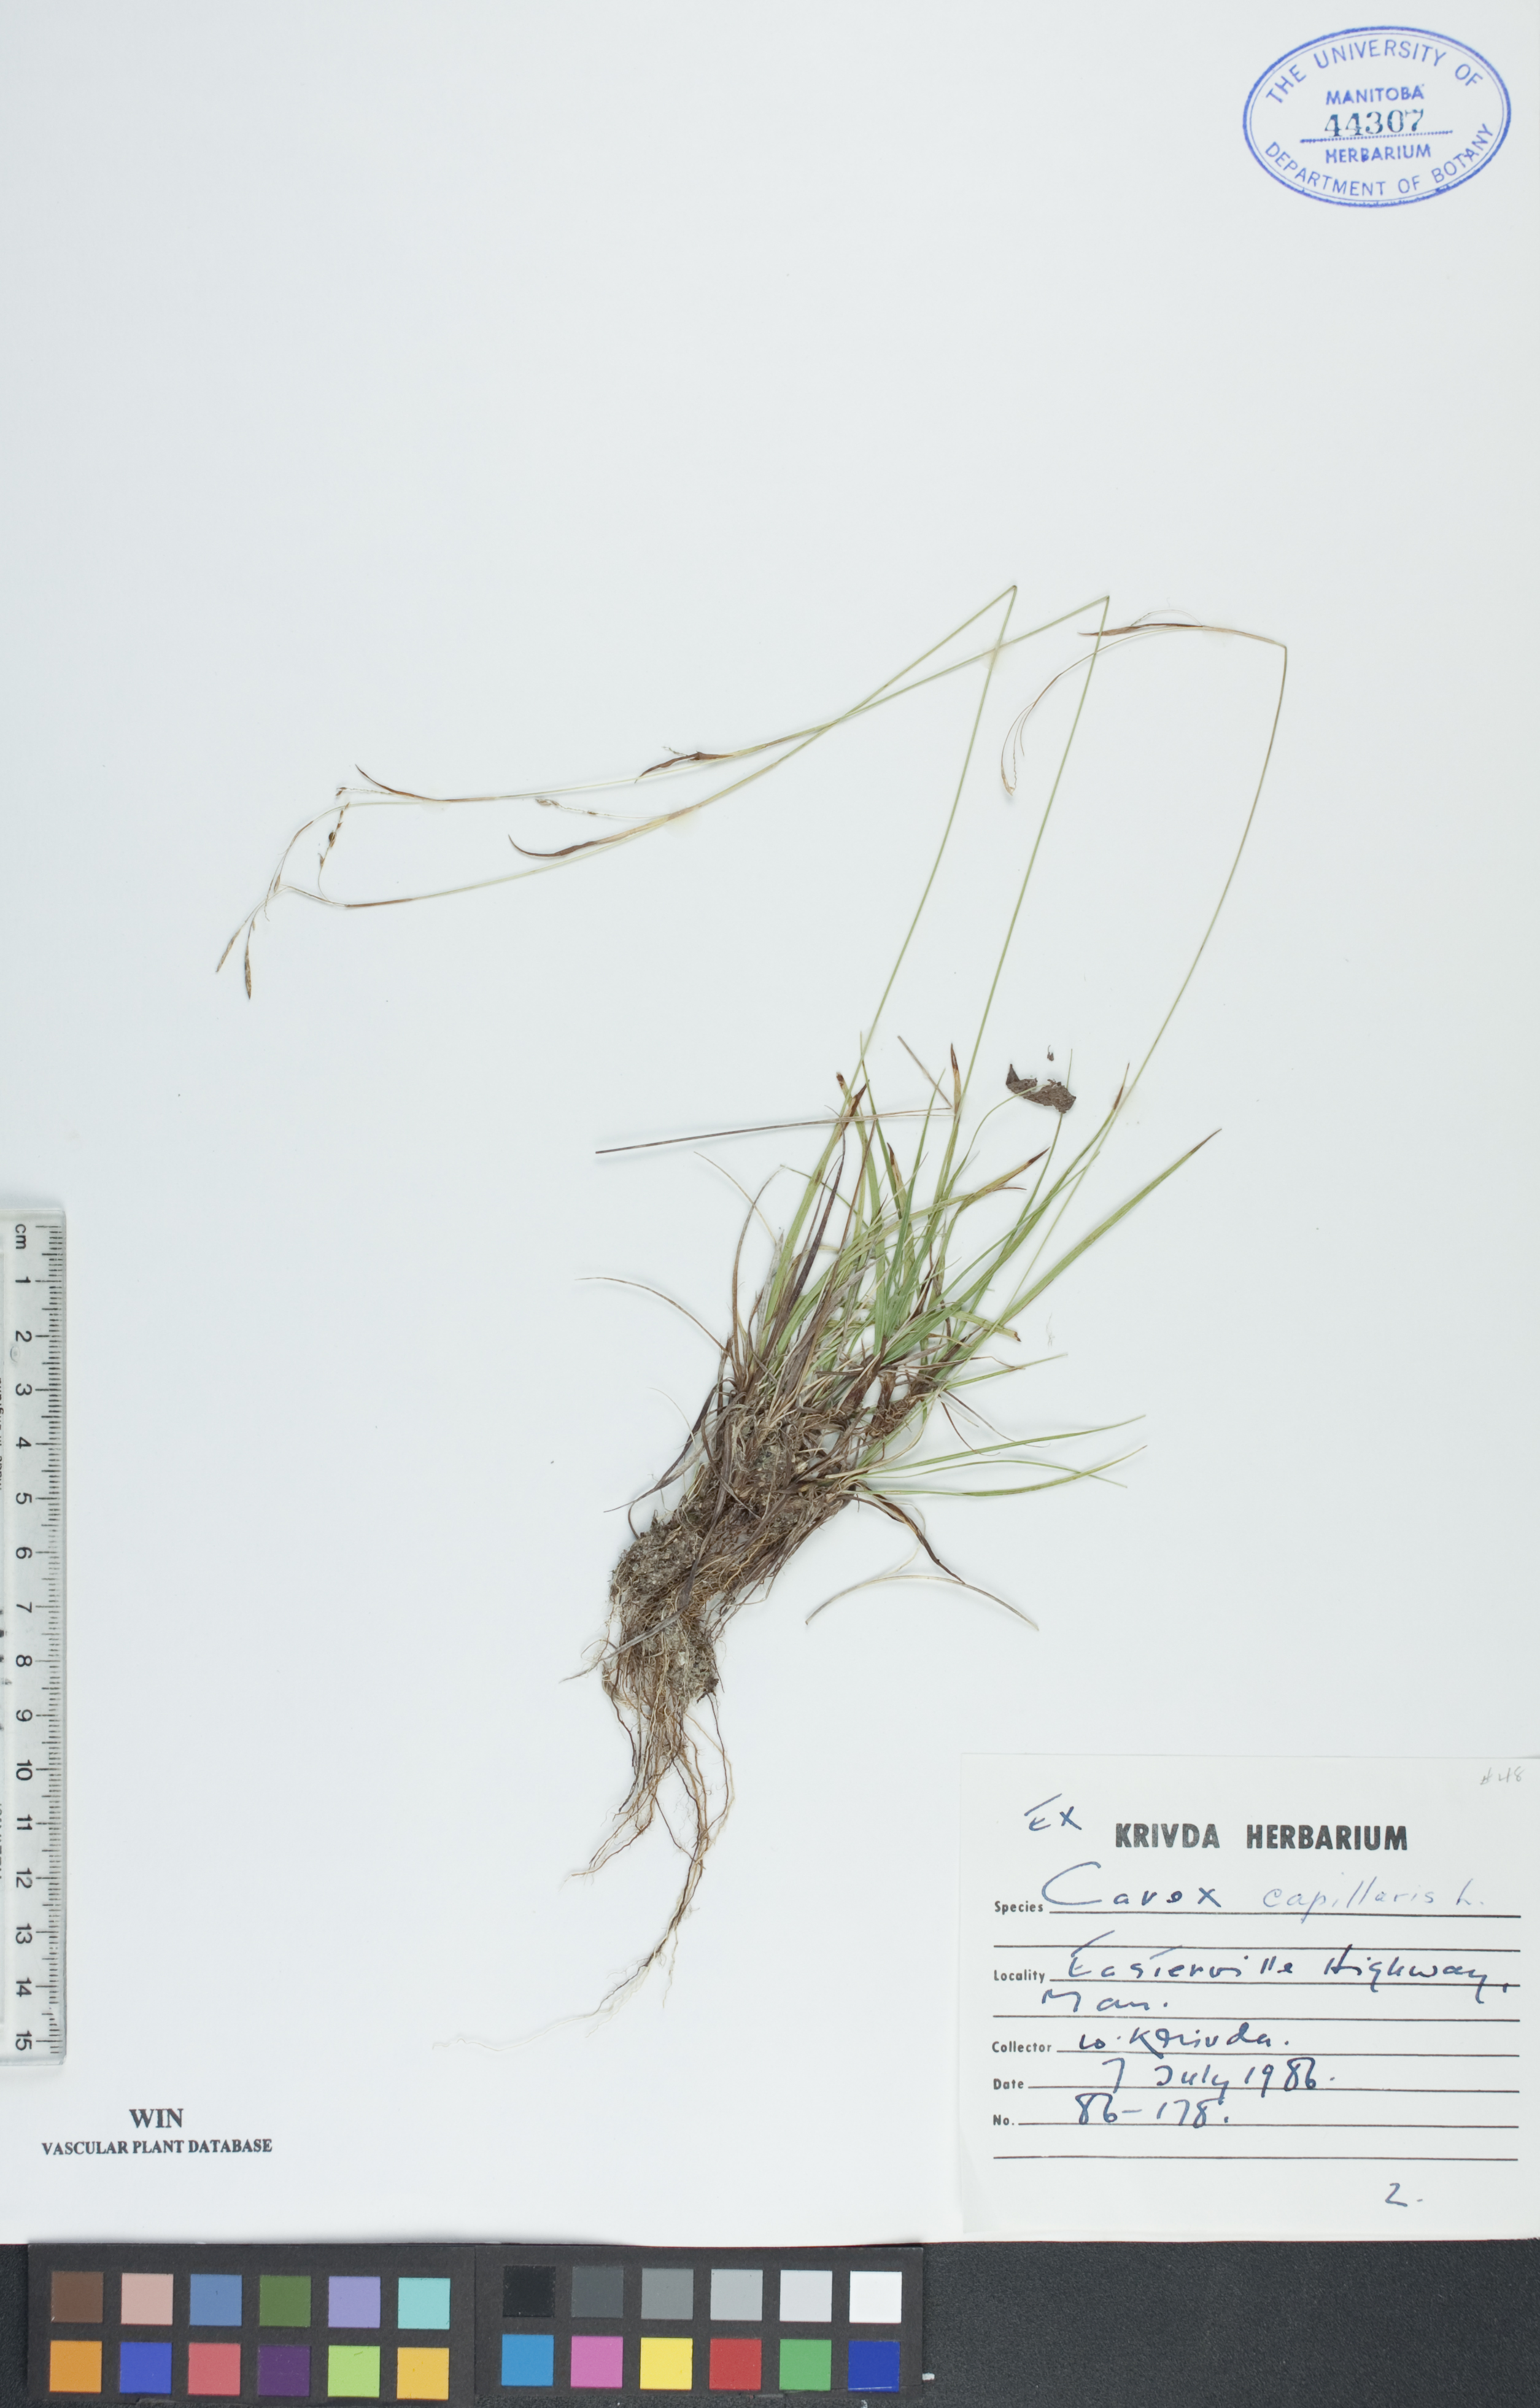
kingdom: Plantae
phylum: Tracheophyta
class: Liliopsida
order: Poales
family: Cyperaceae
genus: Carex
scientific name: Carex capillaris
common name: Hair sedge
